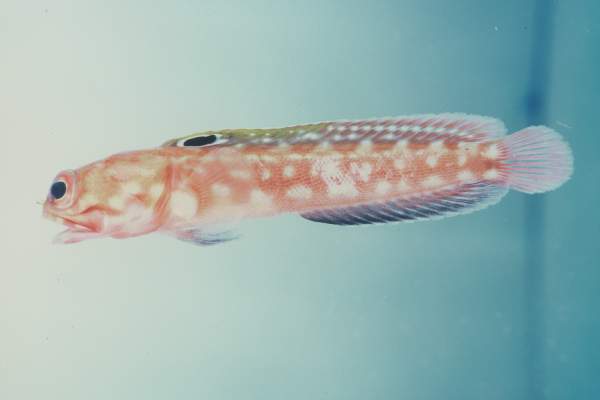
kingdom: Animalia
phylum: Chordata
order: Perciformes
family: Opistognathidae
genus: Opistognathus
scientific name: Opistognathus margaretae
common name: Halfscaled jawfish
